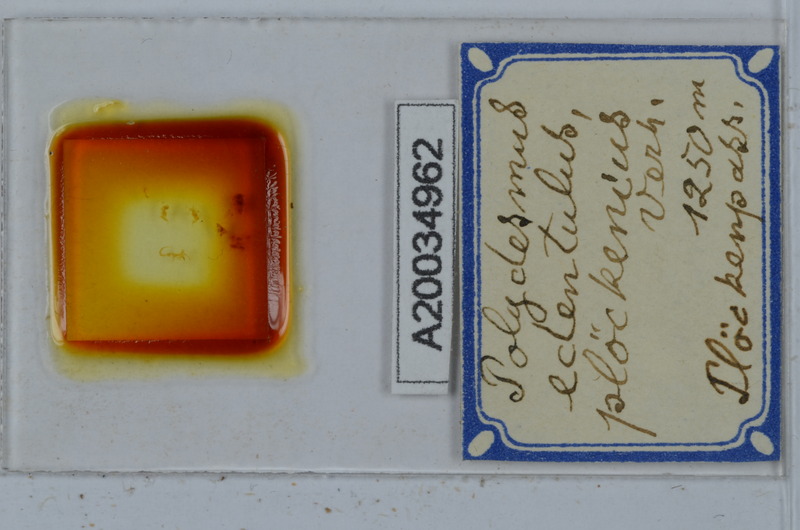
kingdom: Animalia
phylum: Arthropoda
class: Diplopoda
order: Polydesmida
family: Polydesmidae
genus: Polydesmus
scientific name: Polydesmus edentulus
